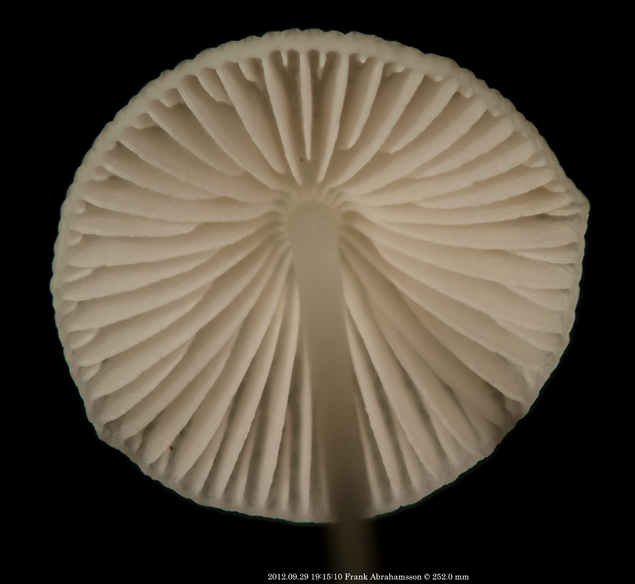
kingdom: Fungi
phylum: Basidiomycota
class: Agaricomycetes
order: Agaricales
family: Mycenaceae
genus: Mycena
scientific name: Mycena vitilis
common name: blankstokket huesvamp
